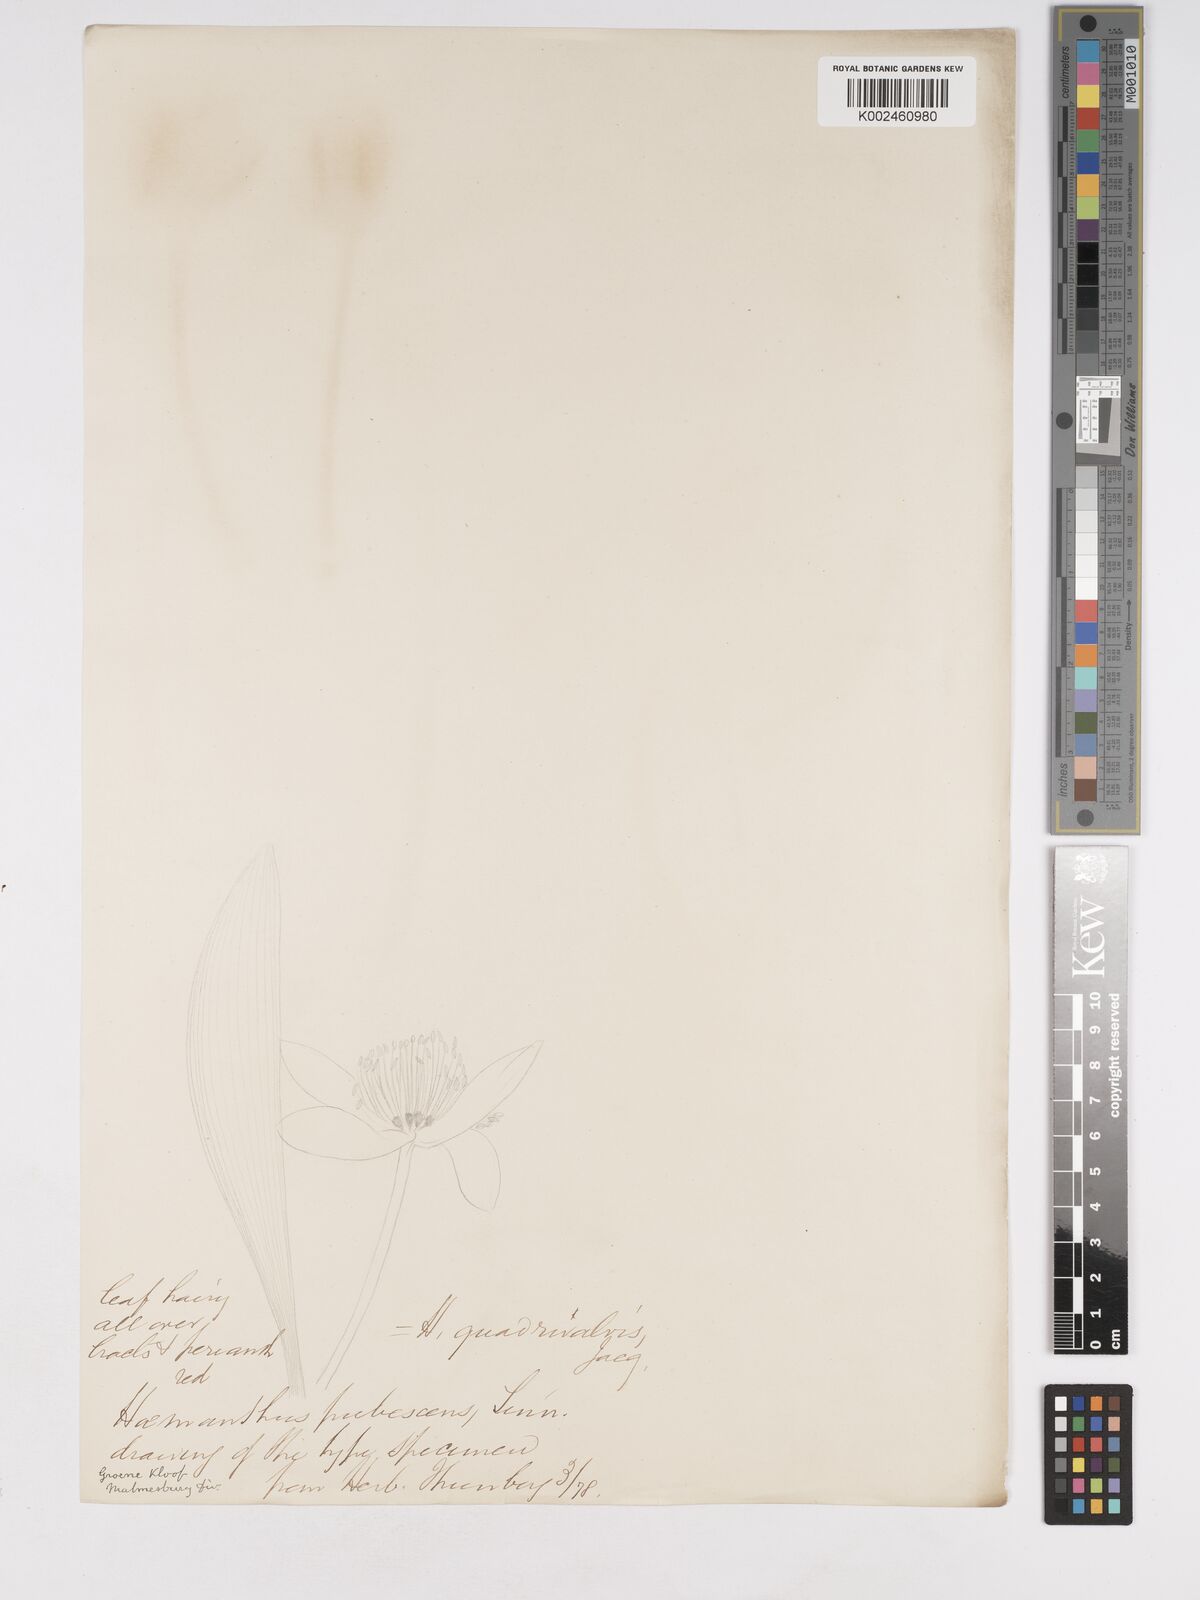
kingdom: Plantae
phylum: Tracheophyta
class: Liliopsida
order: Asparagales
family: Amaryllidaceae
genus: Haemanthus
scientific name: Haemanthus pubescens
